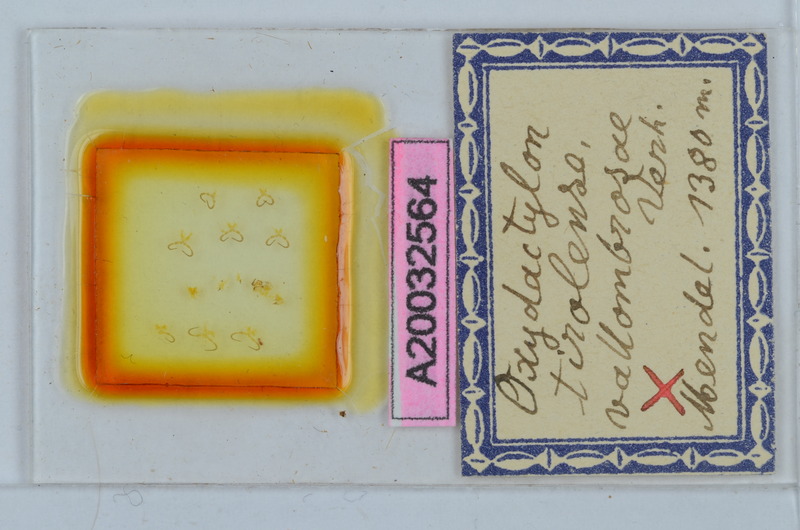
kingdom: Animalia
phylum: Arthropoda
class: Diplopoda
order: Chordeumatida
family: Craspedosomatidae
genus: Iulogona
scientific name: Iulogona tirolensis
